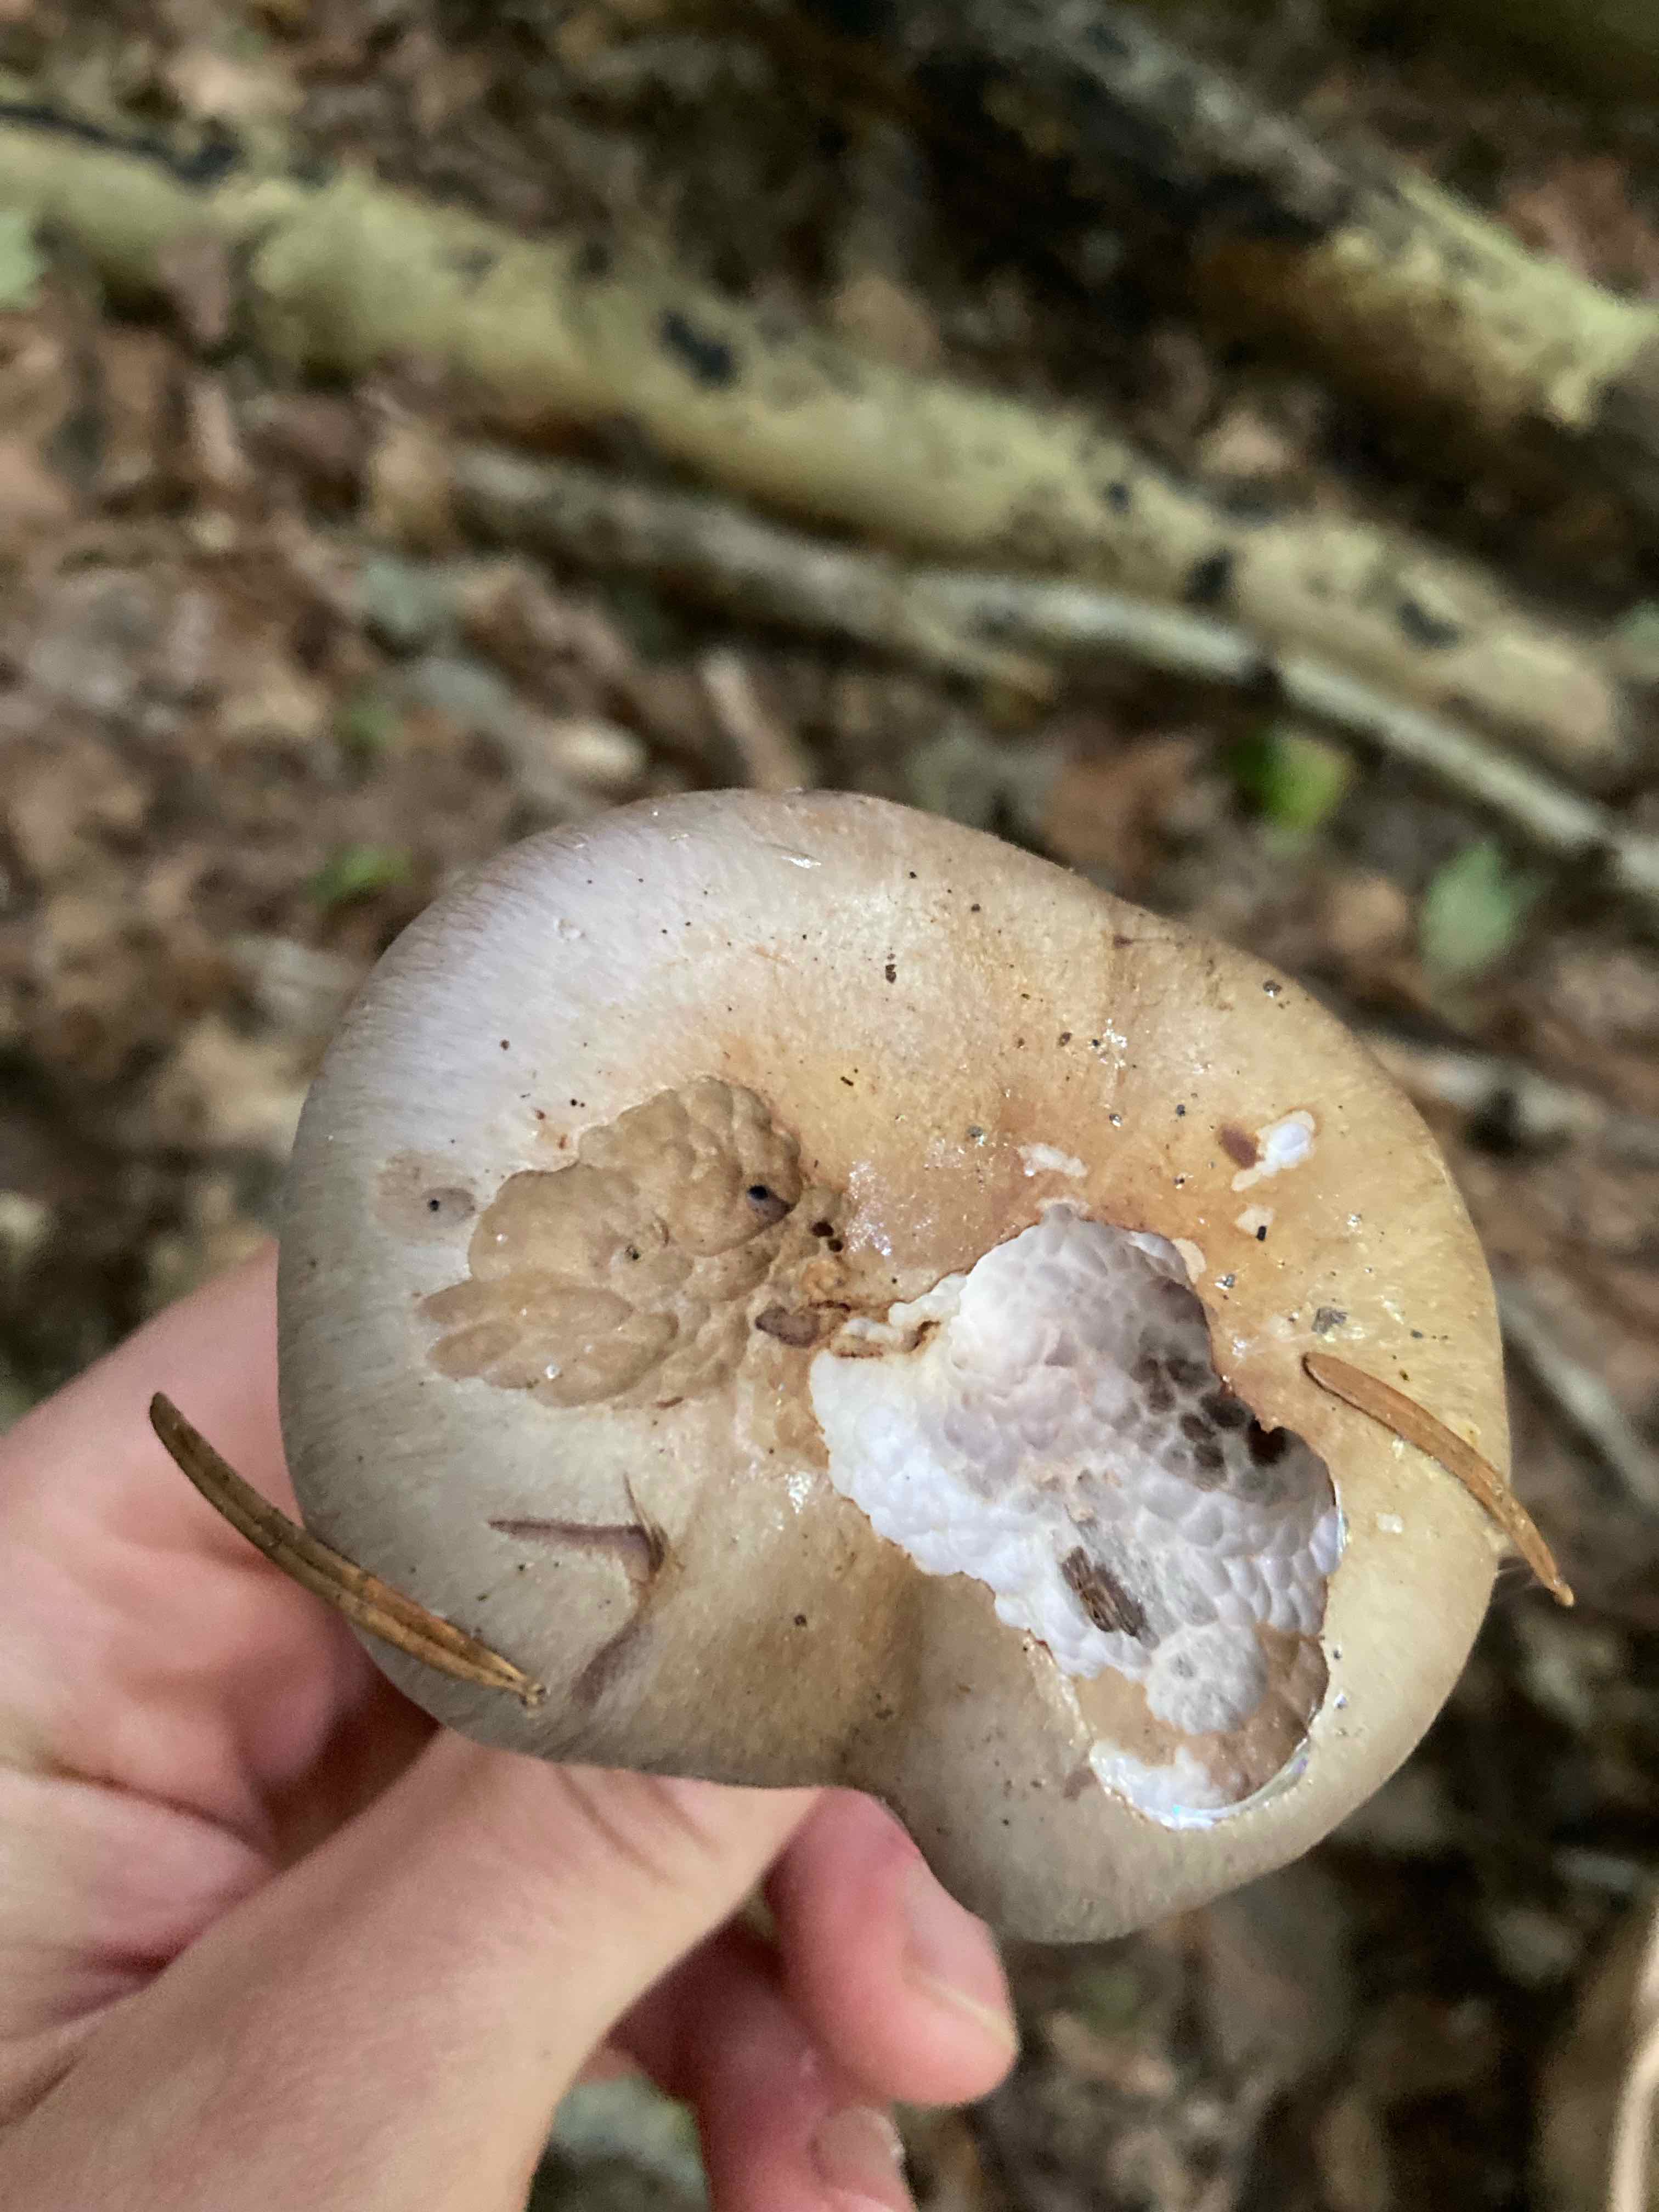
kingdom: Fungi
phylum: Basidiomycota
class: Agaricomycetes
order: Agaricales
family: Cortinariaceae
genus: Cortinarius
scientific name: Cortinarius largus
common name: violetrandet slørhat
